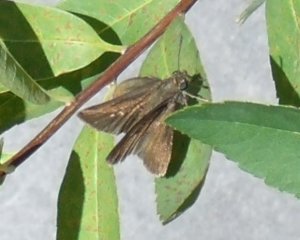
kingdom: Animalia
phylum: Arthropoda
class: Insecta
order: Lepidoptera
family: Hesperiidae
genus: Euphyes
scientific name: Euphyes vestris
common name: Dun Skipper
